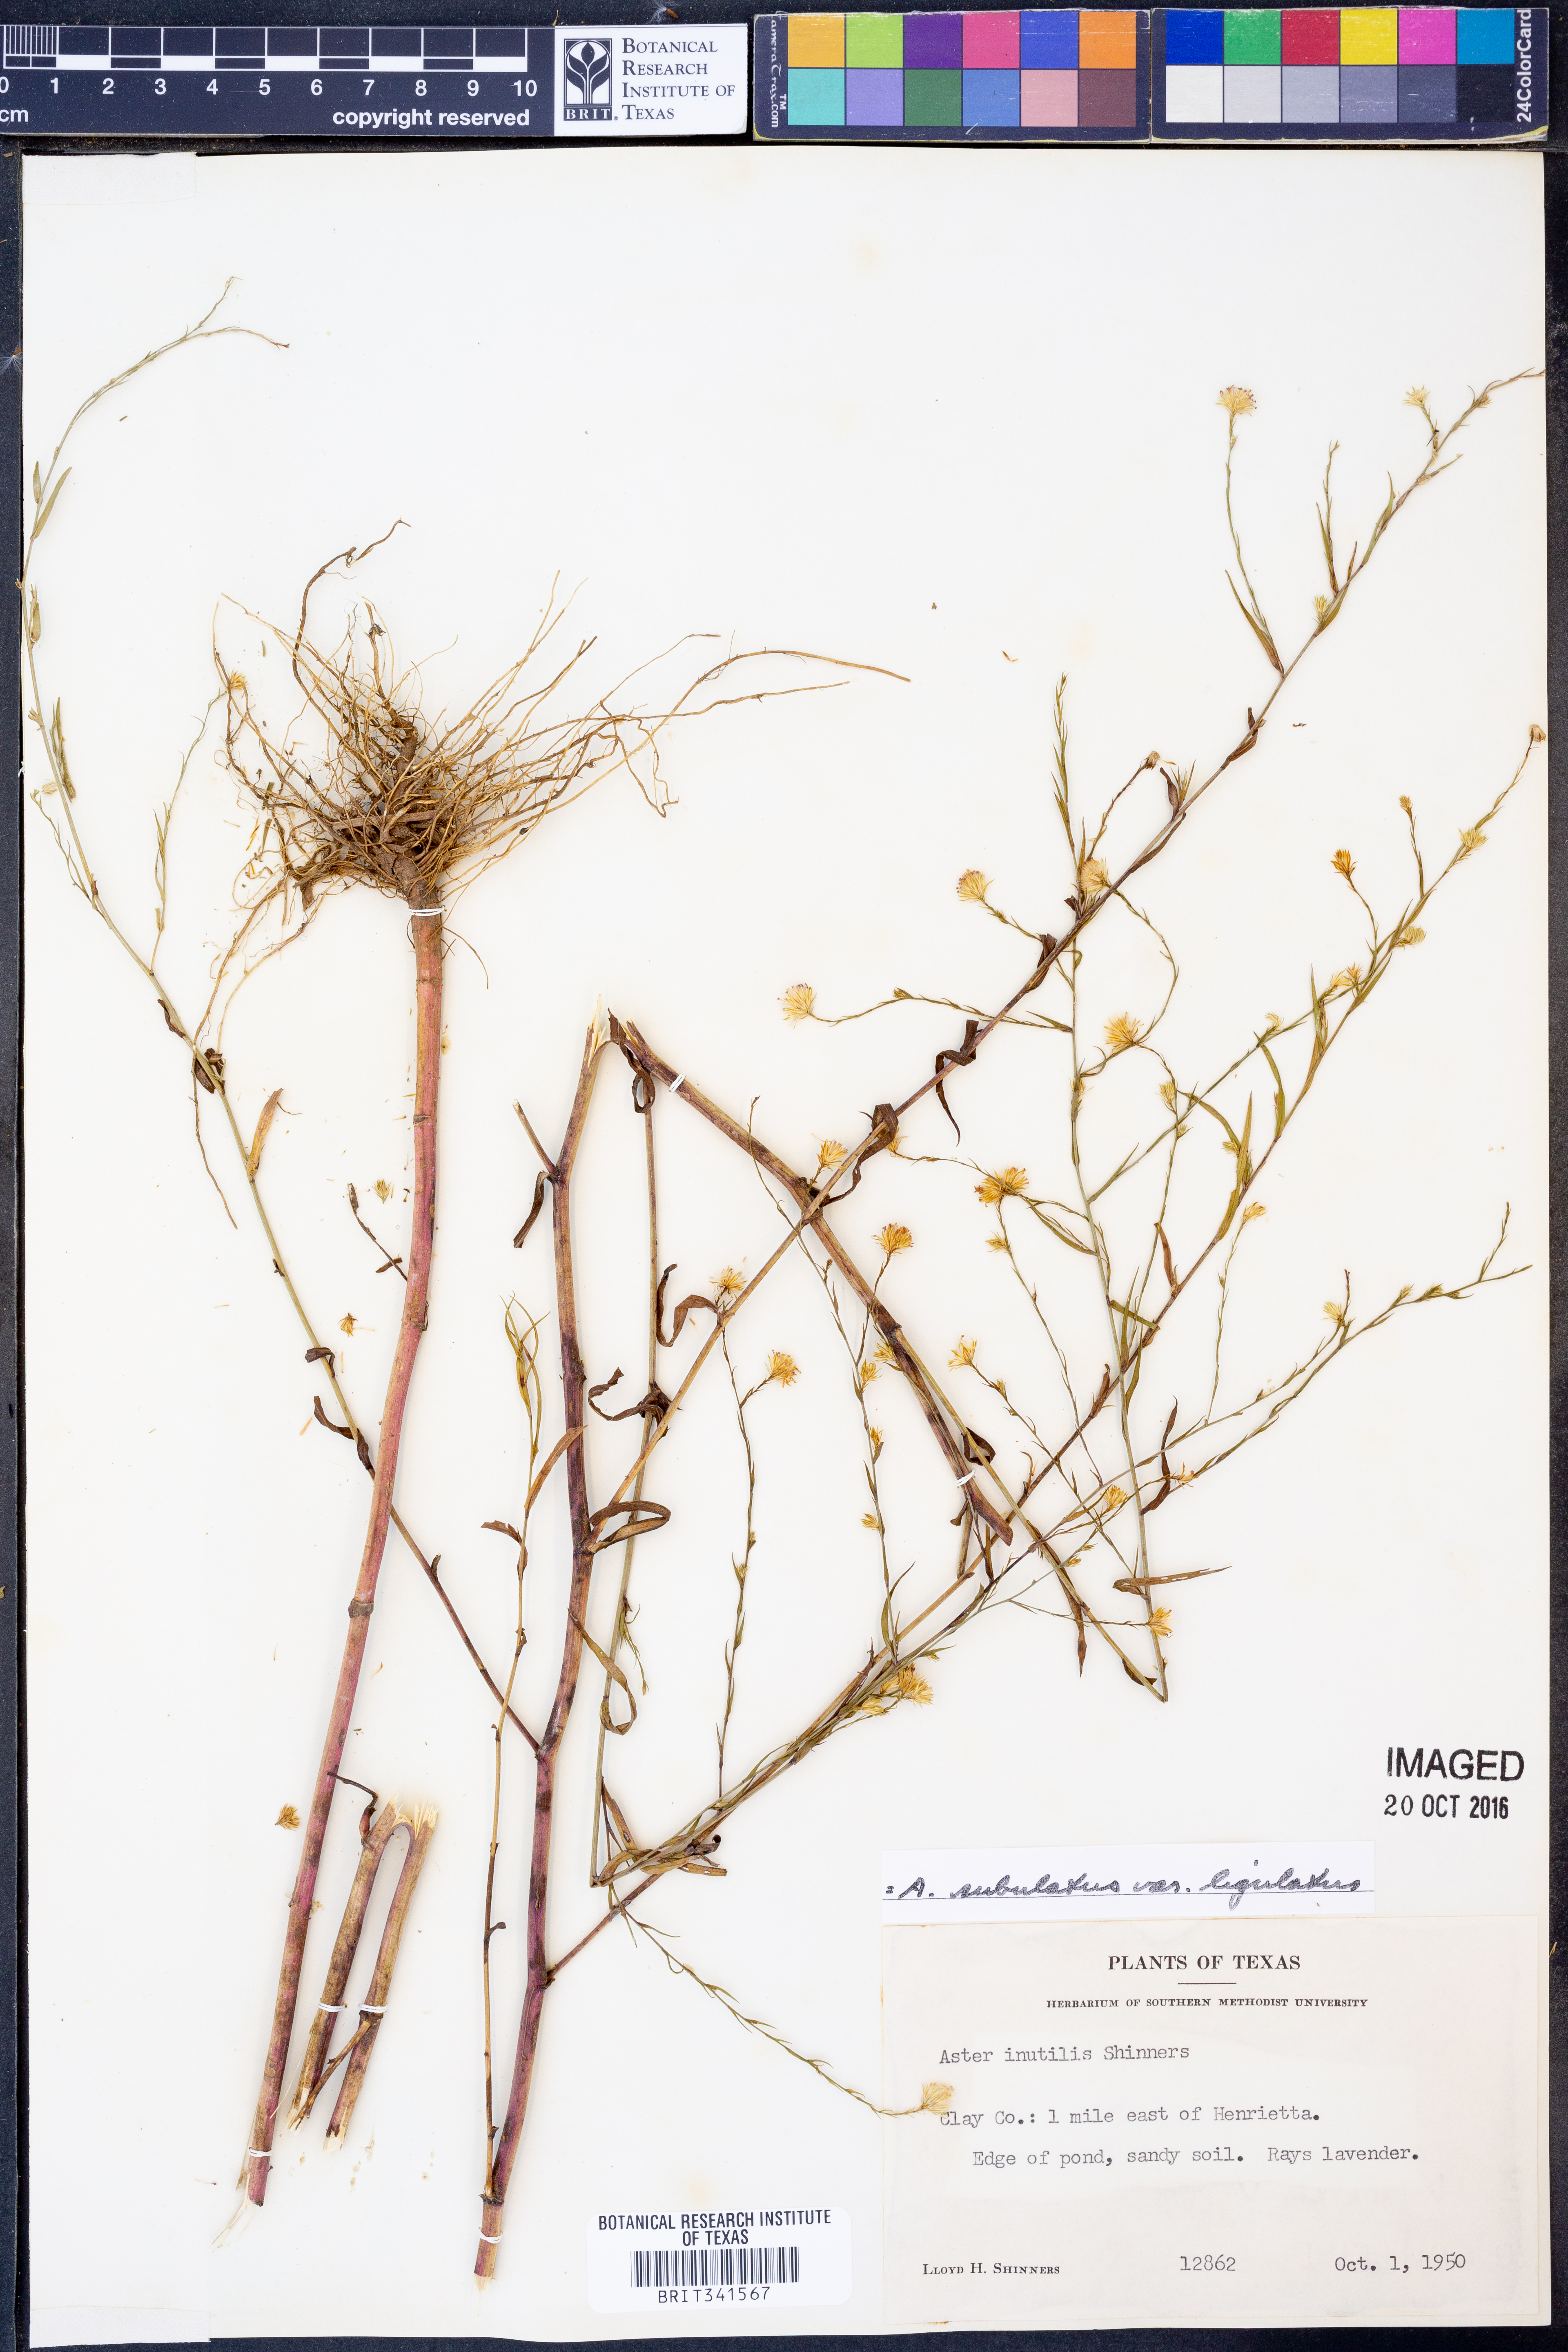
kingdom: Plantae
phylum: Tracheophyta
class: Magnoliopsida
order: Asterales
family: Asteraceae
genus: Symphyotrichum
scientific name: Symphyotrichum divaricatum
